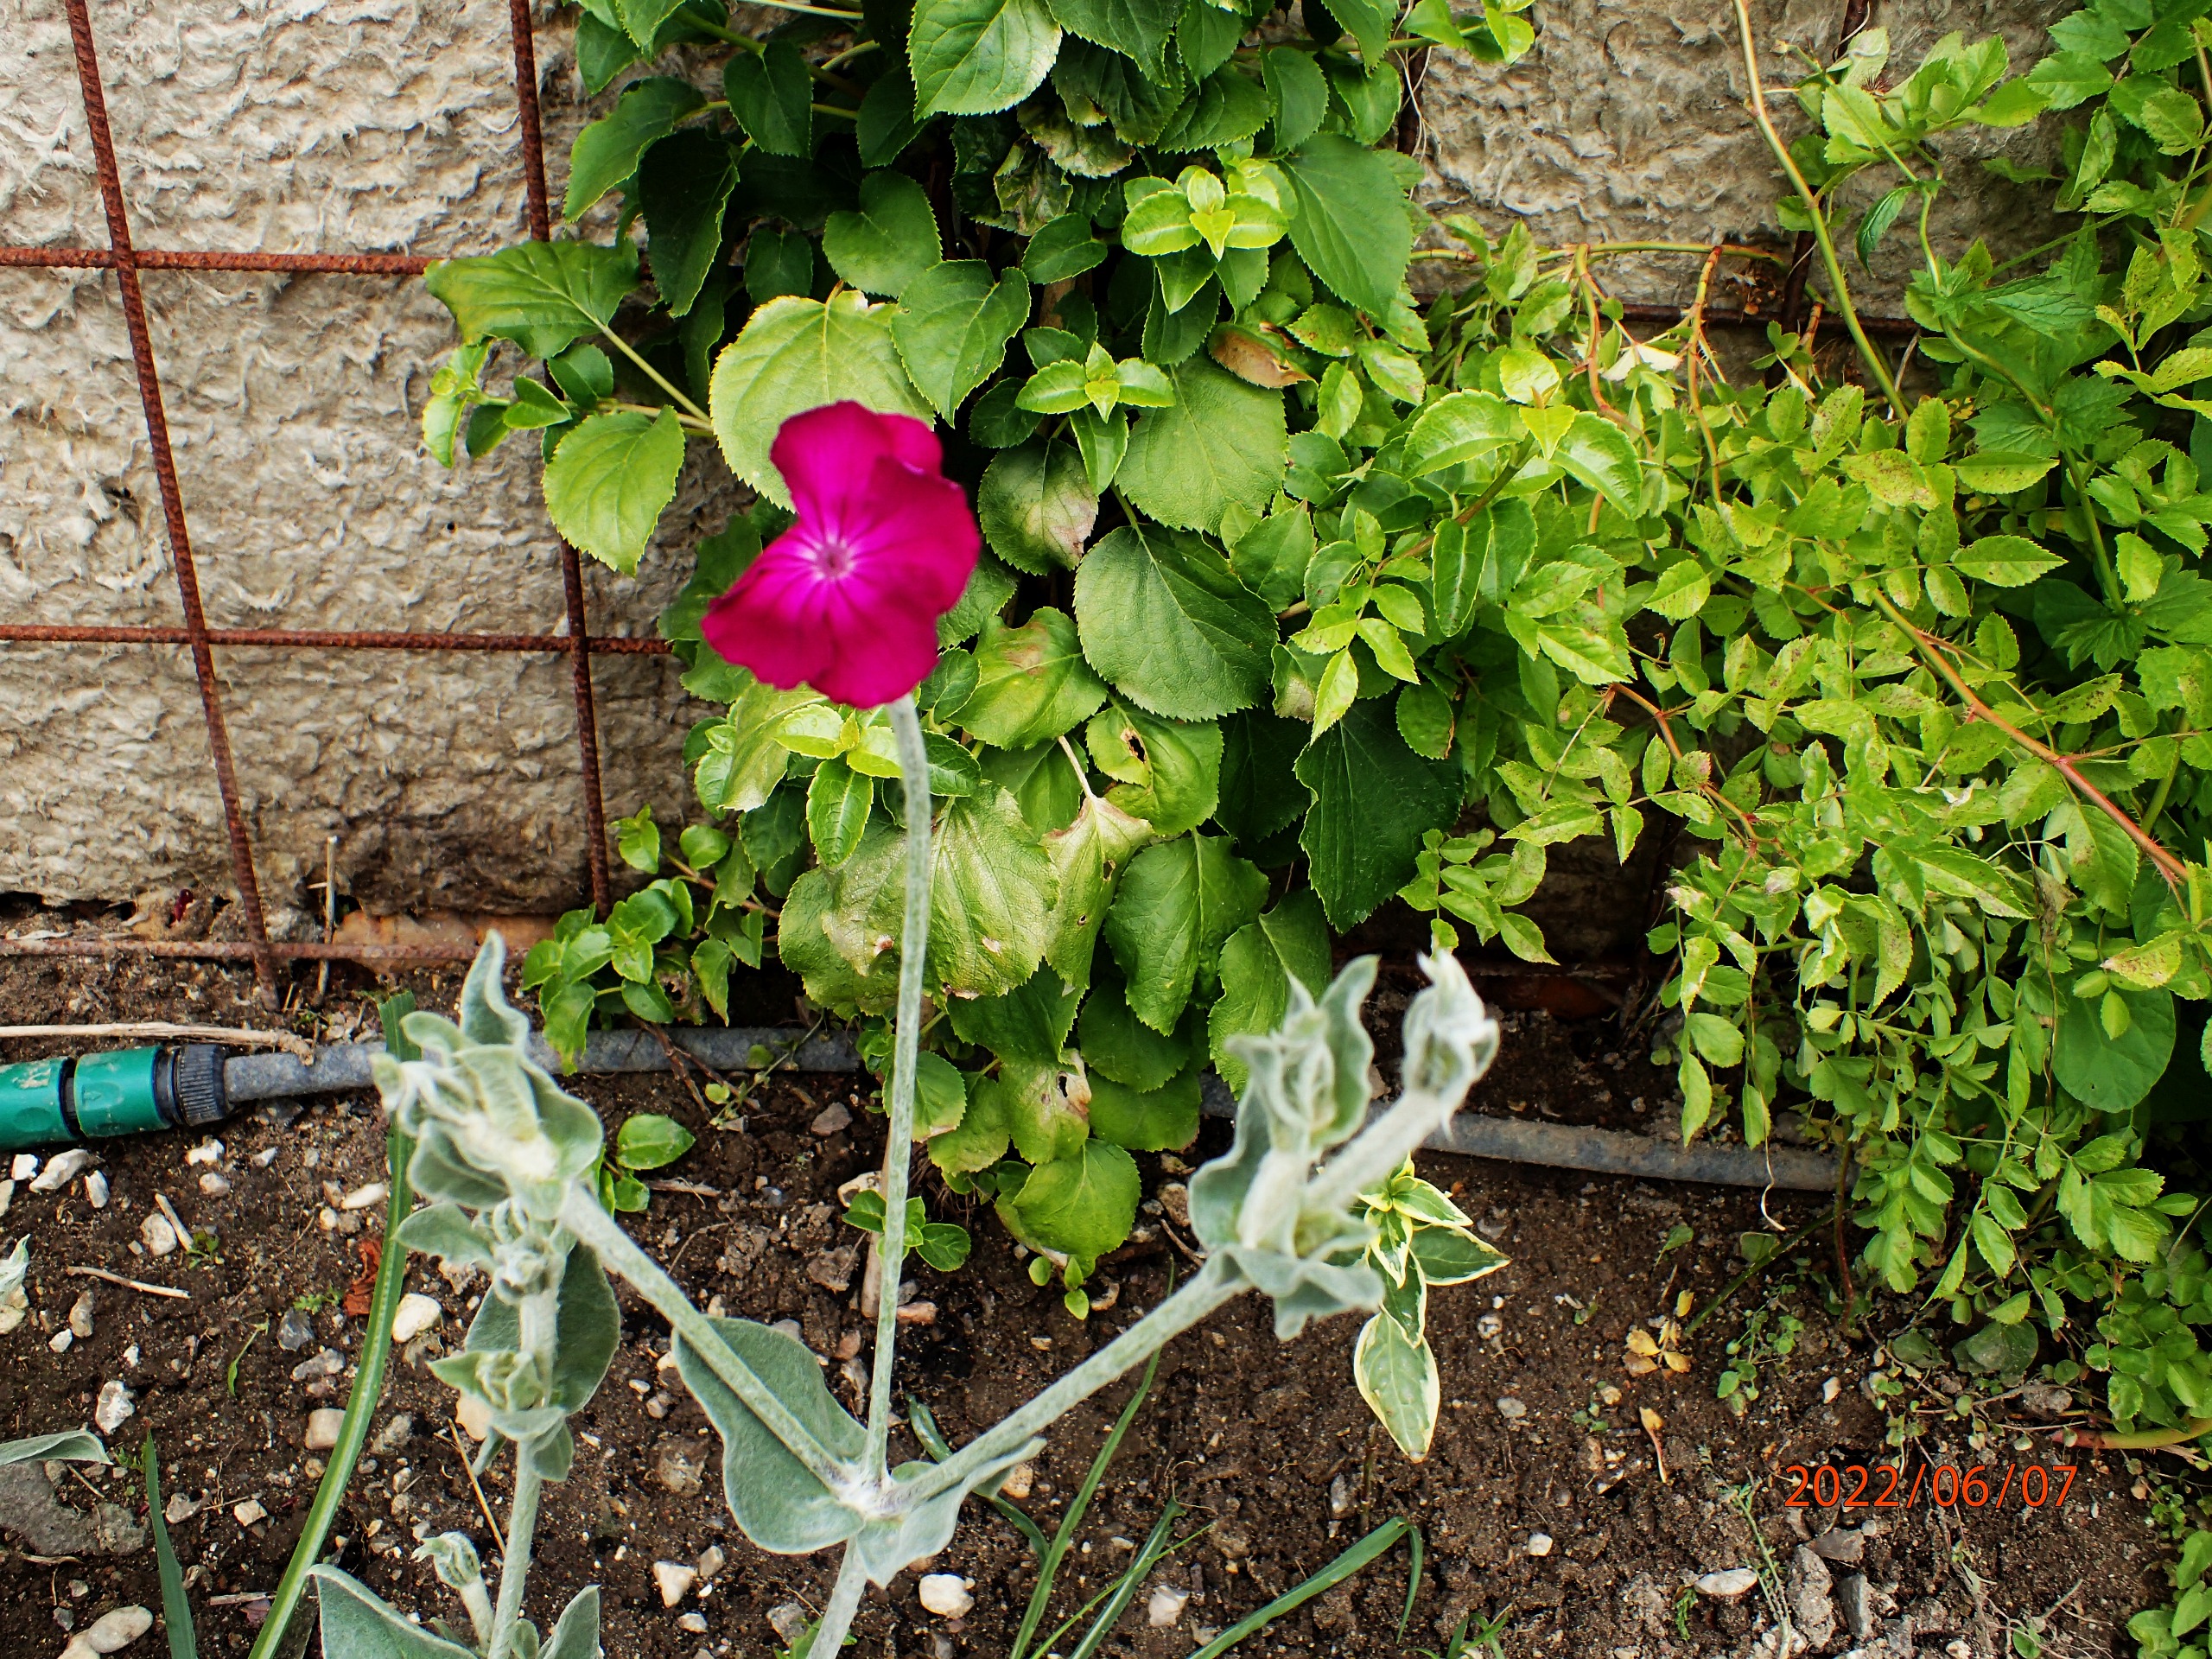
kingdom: Plantae
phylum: Tracheophyta
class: Magnoliopsida
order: Caryophyllales
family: Caryophyllaceae
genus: Silene
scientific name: Silene coronaria
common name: Fiksernellike
